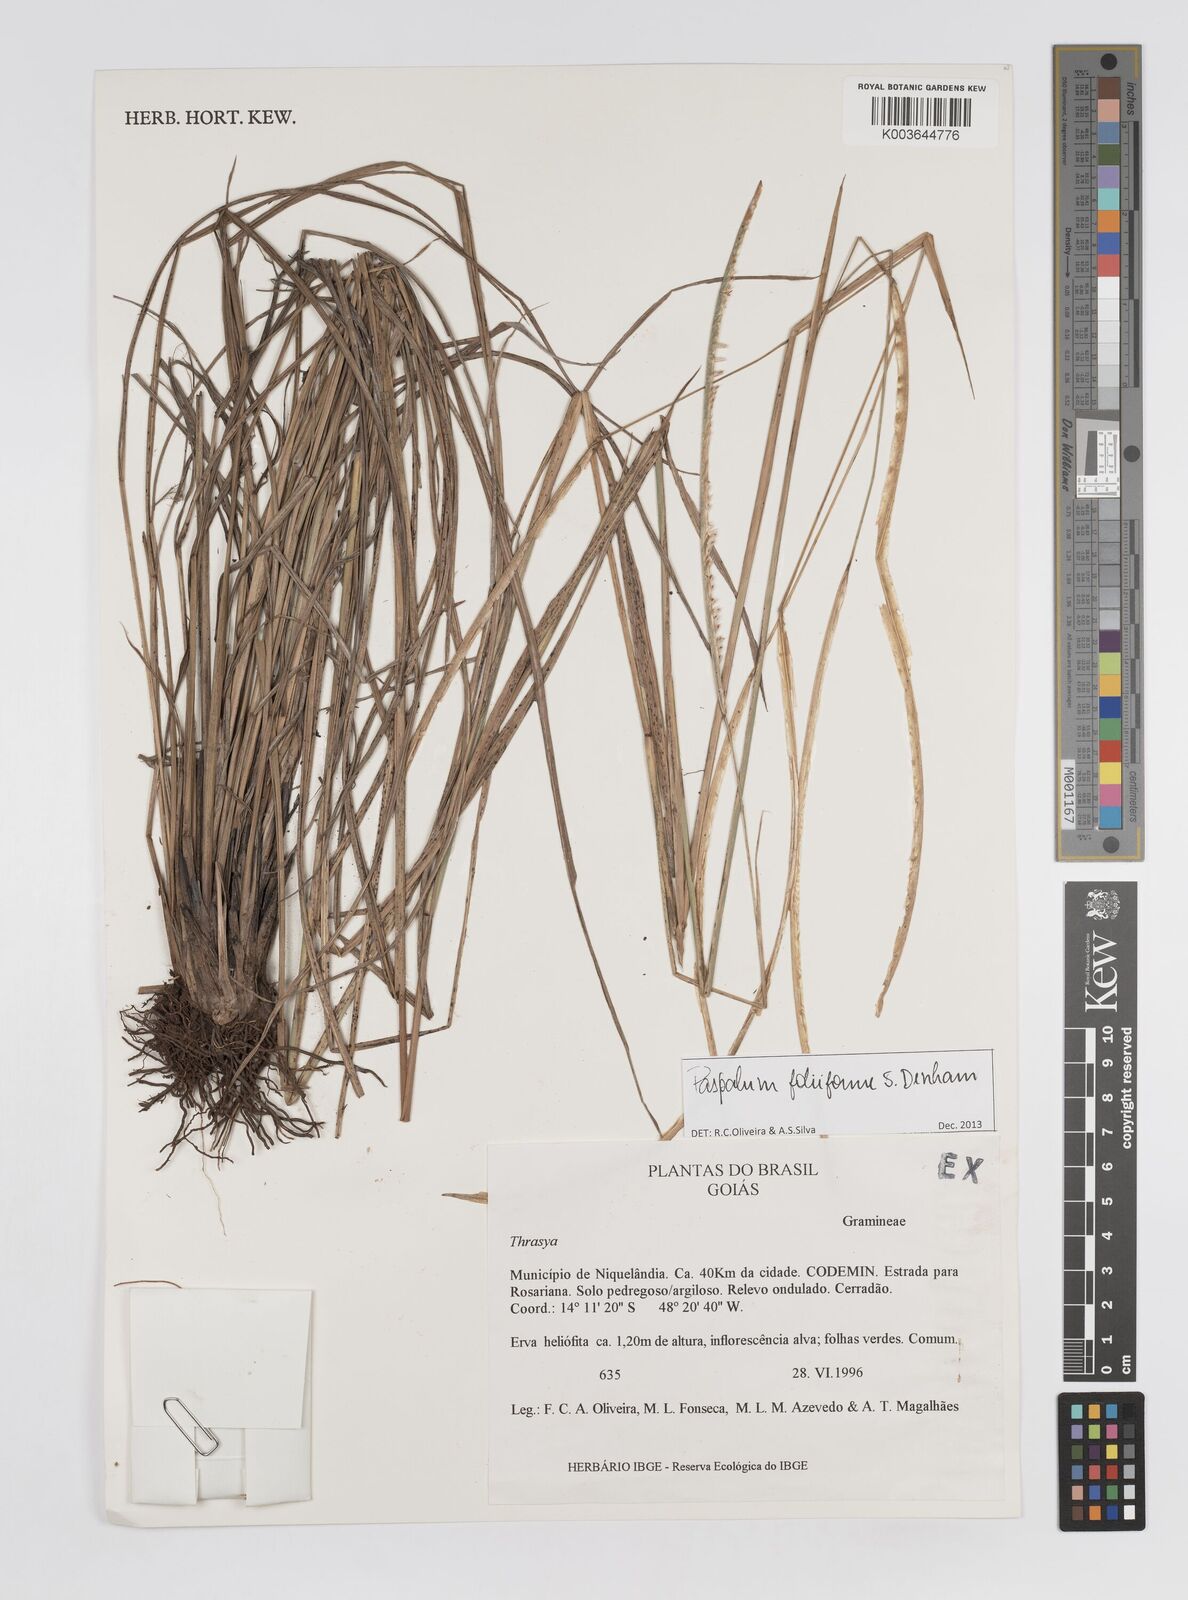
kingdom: Plantae
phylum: Tracheophyta
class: Liliopsida
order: Poales
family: Poaceae
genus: Paspalum
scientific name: Paspalum foliiforme
